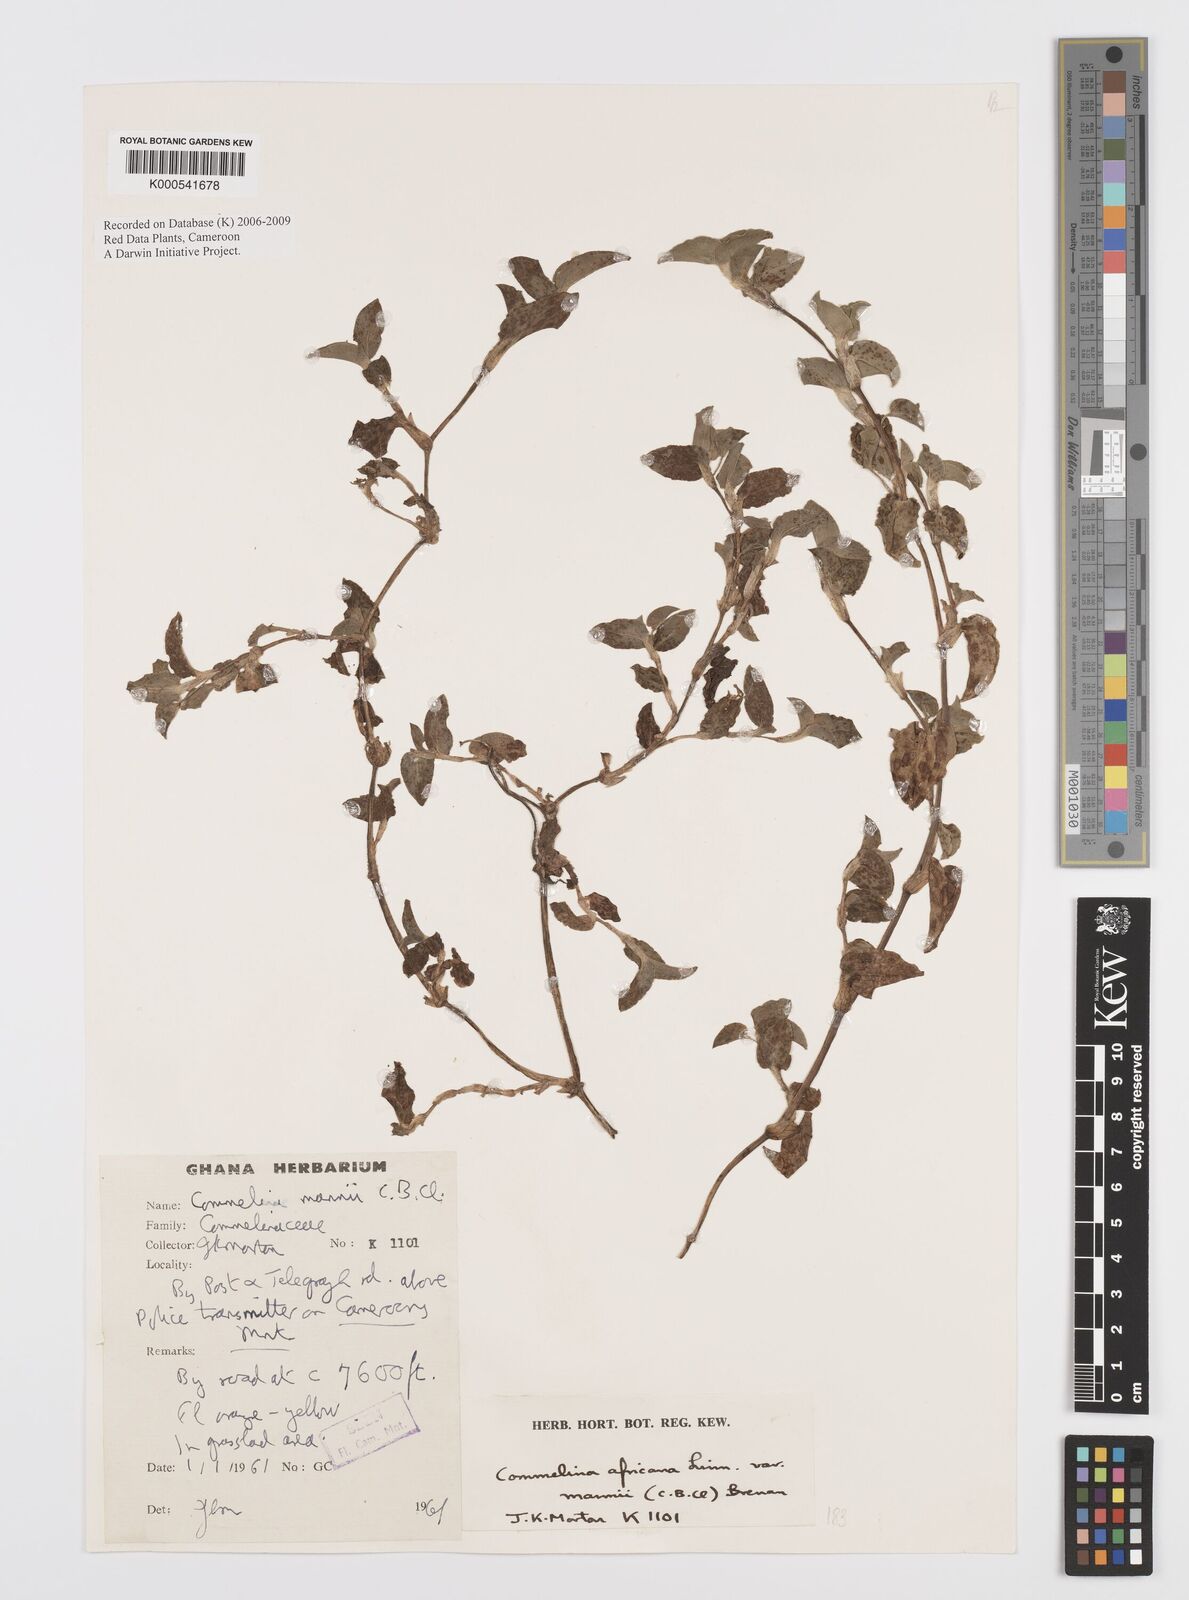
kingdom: Plantae
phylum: Tracheophyta
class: Liliopsida
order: Commelinales
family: Commelinaceae
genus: Commelina
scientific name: Commelina africana
